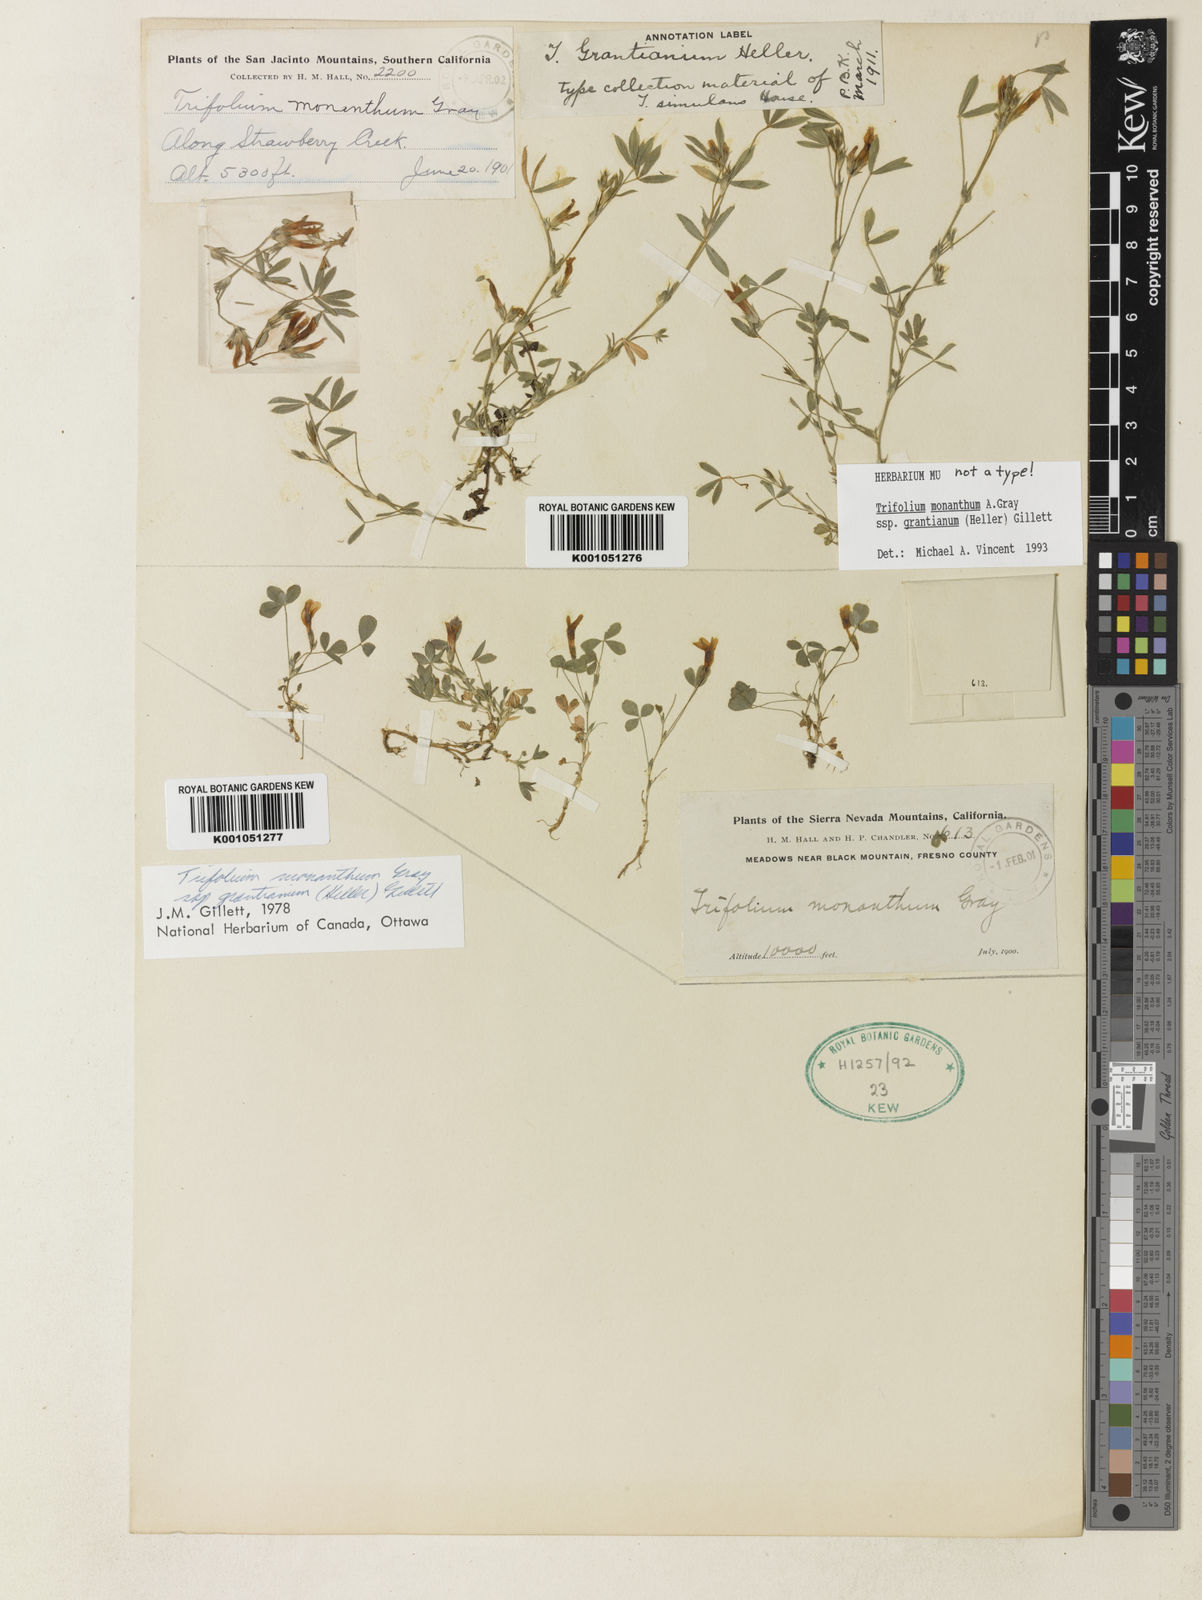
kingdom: Plantae
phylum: Tracheophyta
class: Magnoliopsida
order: Fabales
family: Fabaceae
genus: Trifolium
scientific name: Trifolium monanthum
